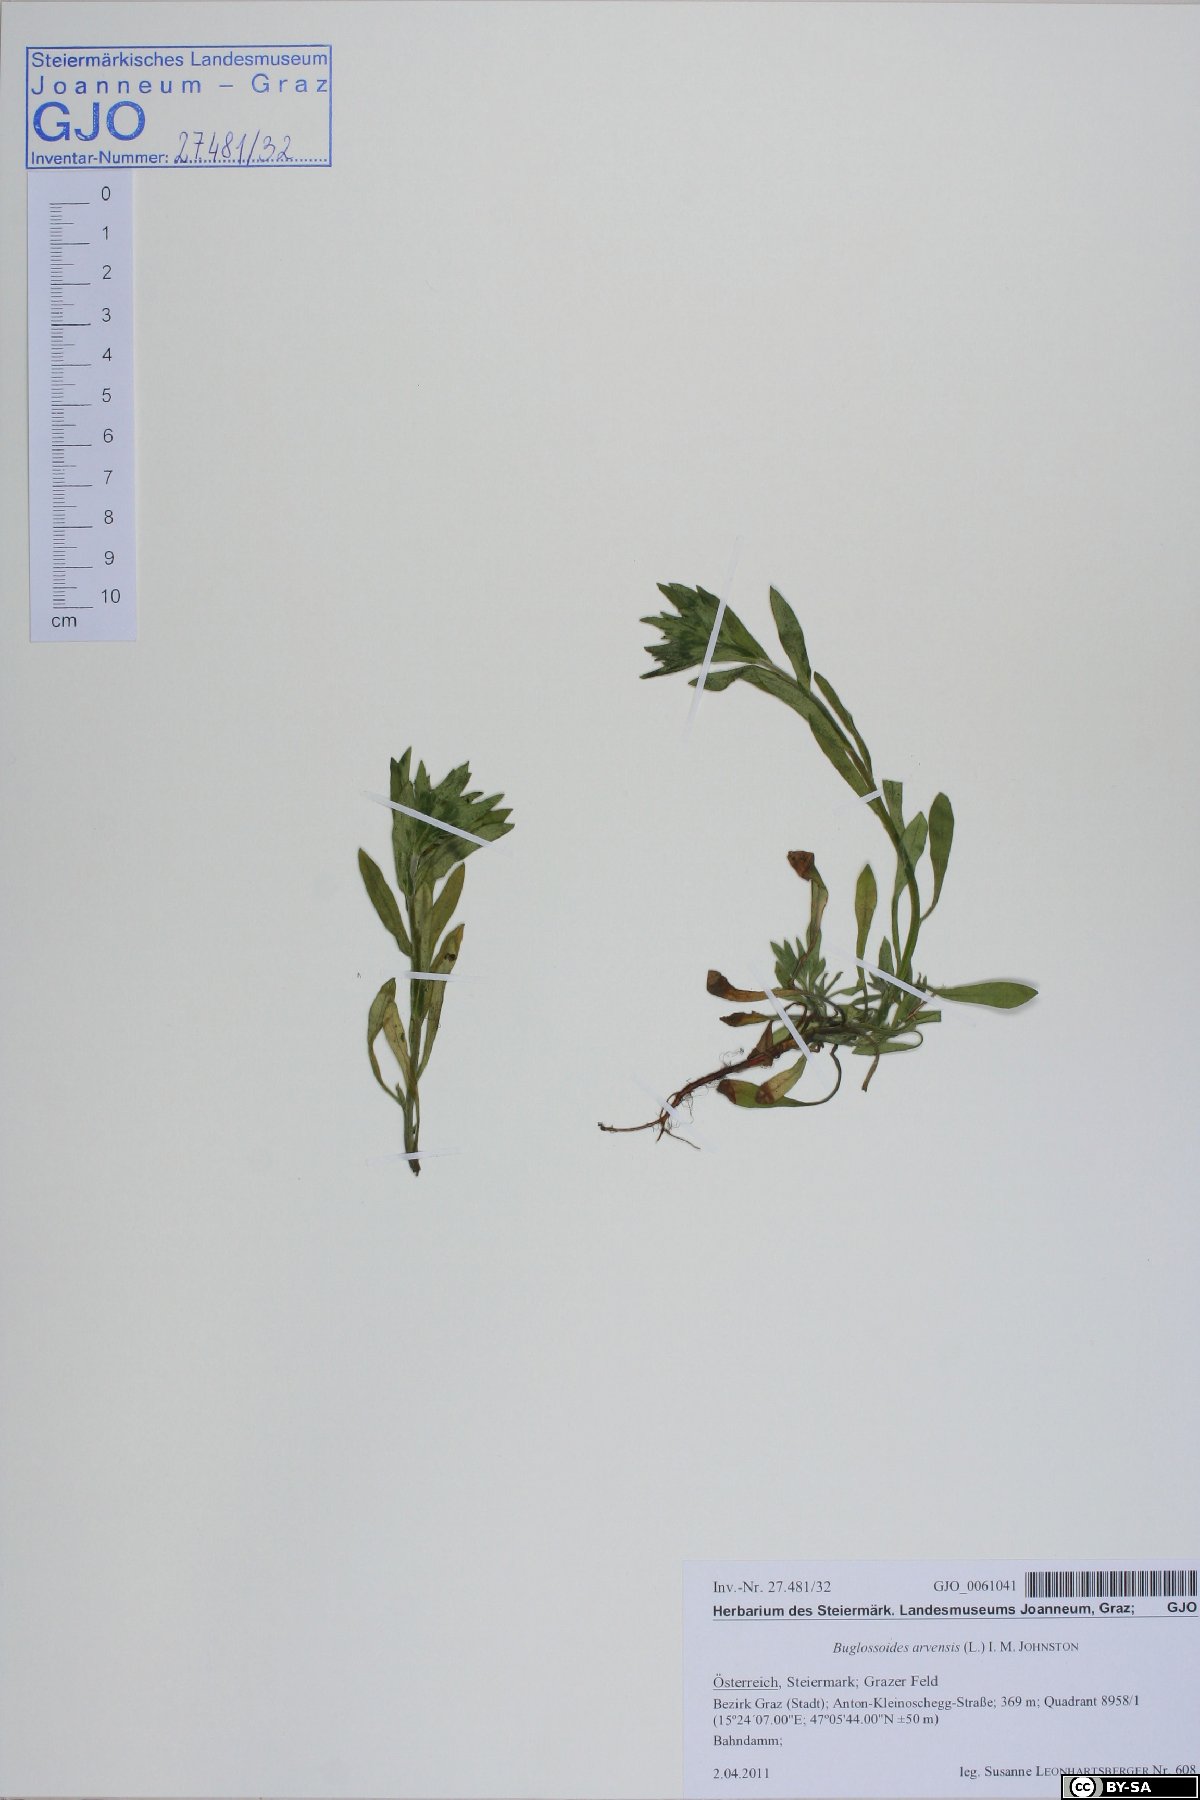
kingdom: Plantae
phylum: Tracheophyta
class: Magnoliopsida
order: Boraginales
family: Boraginaceae
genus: Buglossoides
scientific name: Buglossoides arvensis
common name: Corn gromwell
